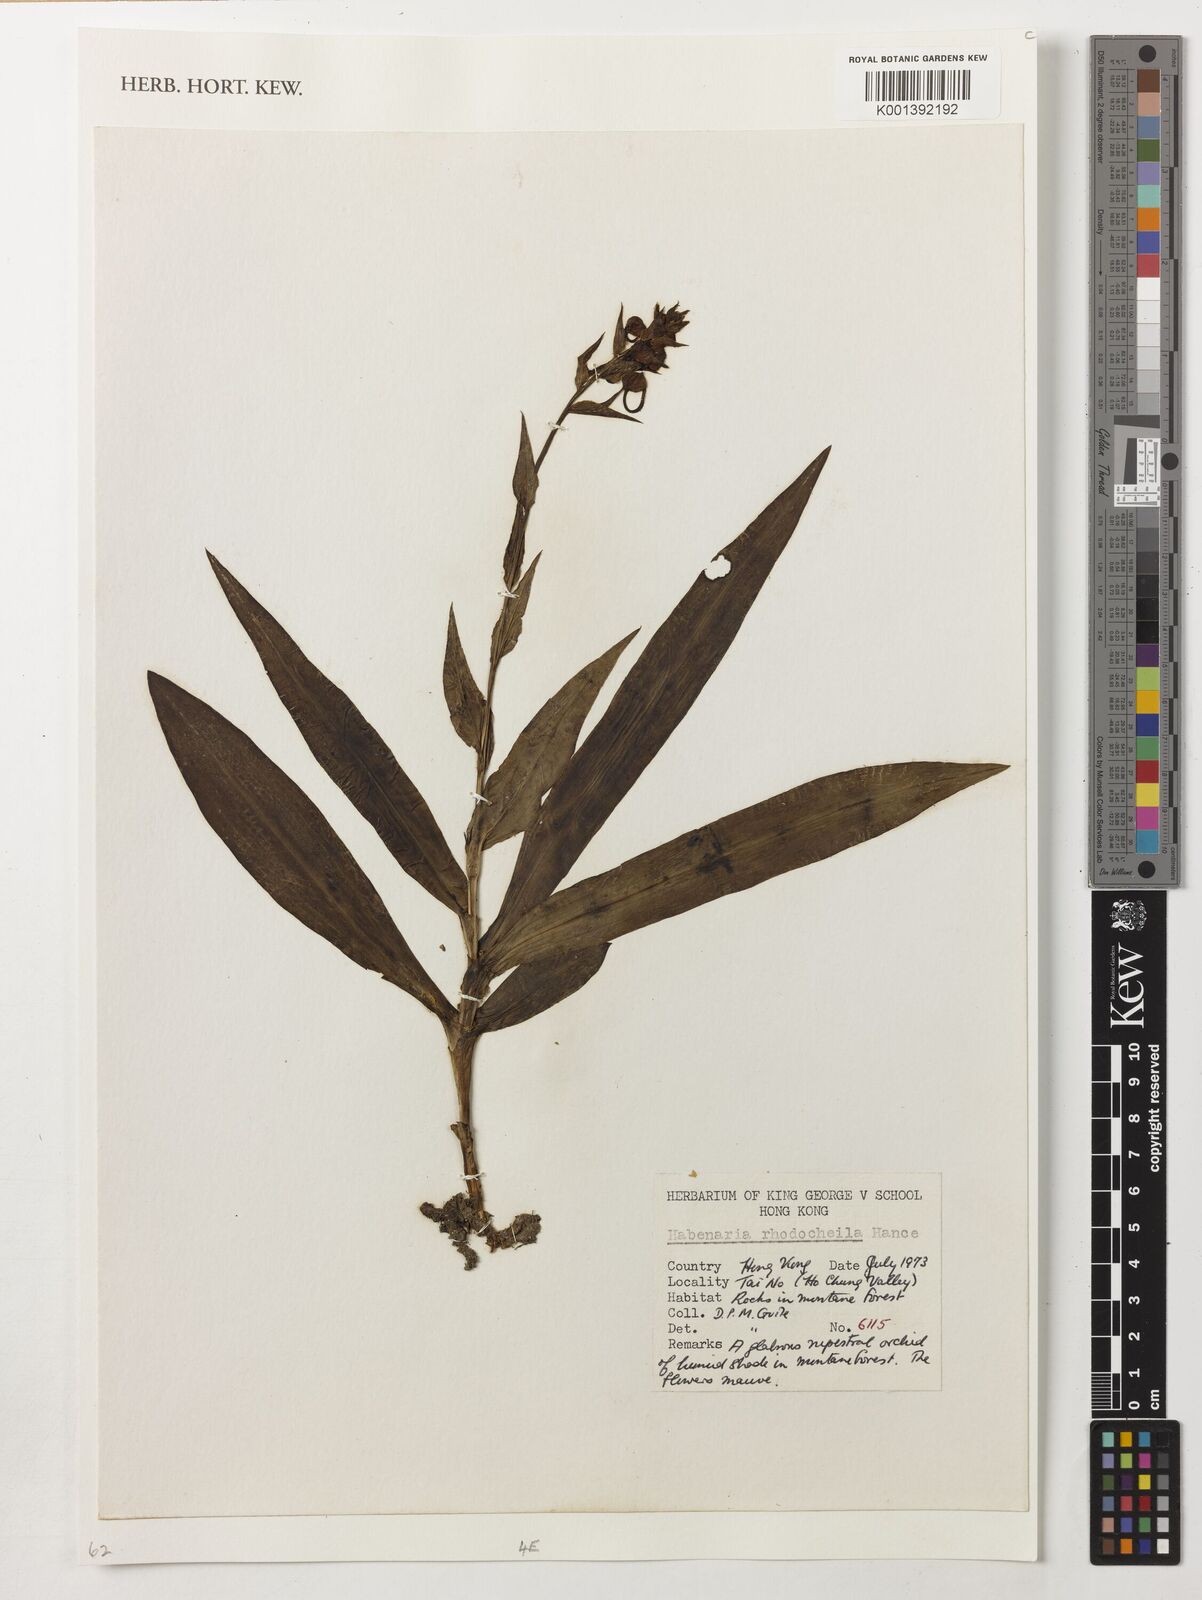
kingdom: Plantae
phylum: Tracheophyta
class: Liliopsida
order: Asparagales
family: Orchidaceae
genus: Habenaria
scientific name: Habenaria rhodocheila
